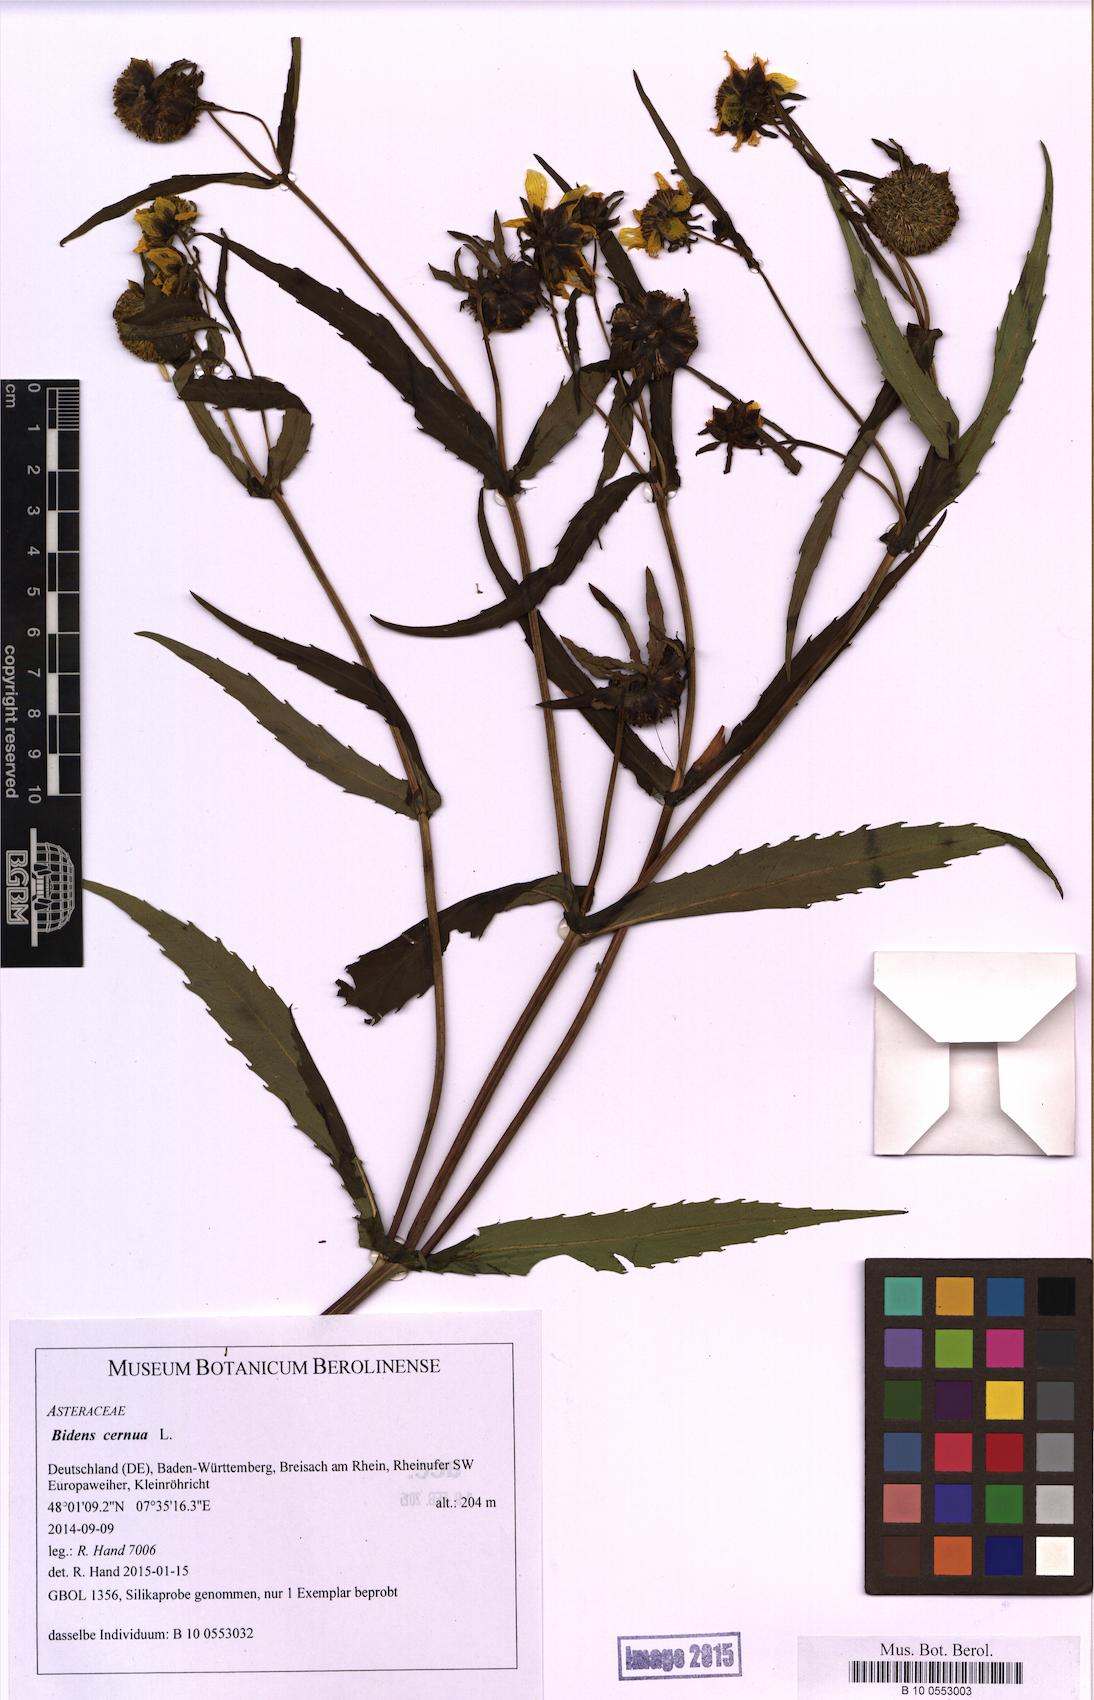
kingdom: Plantae
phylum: Tracheophyta
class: Magnoliopsida
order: Asterales
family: Asteraceae
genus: Bidens
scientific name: Bidens cernua
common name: Nodding bur-marigold
